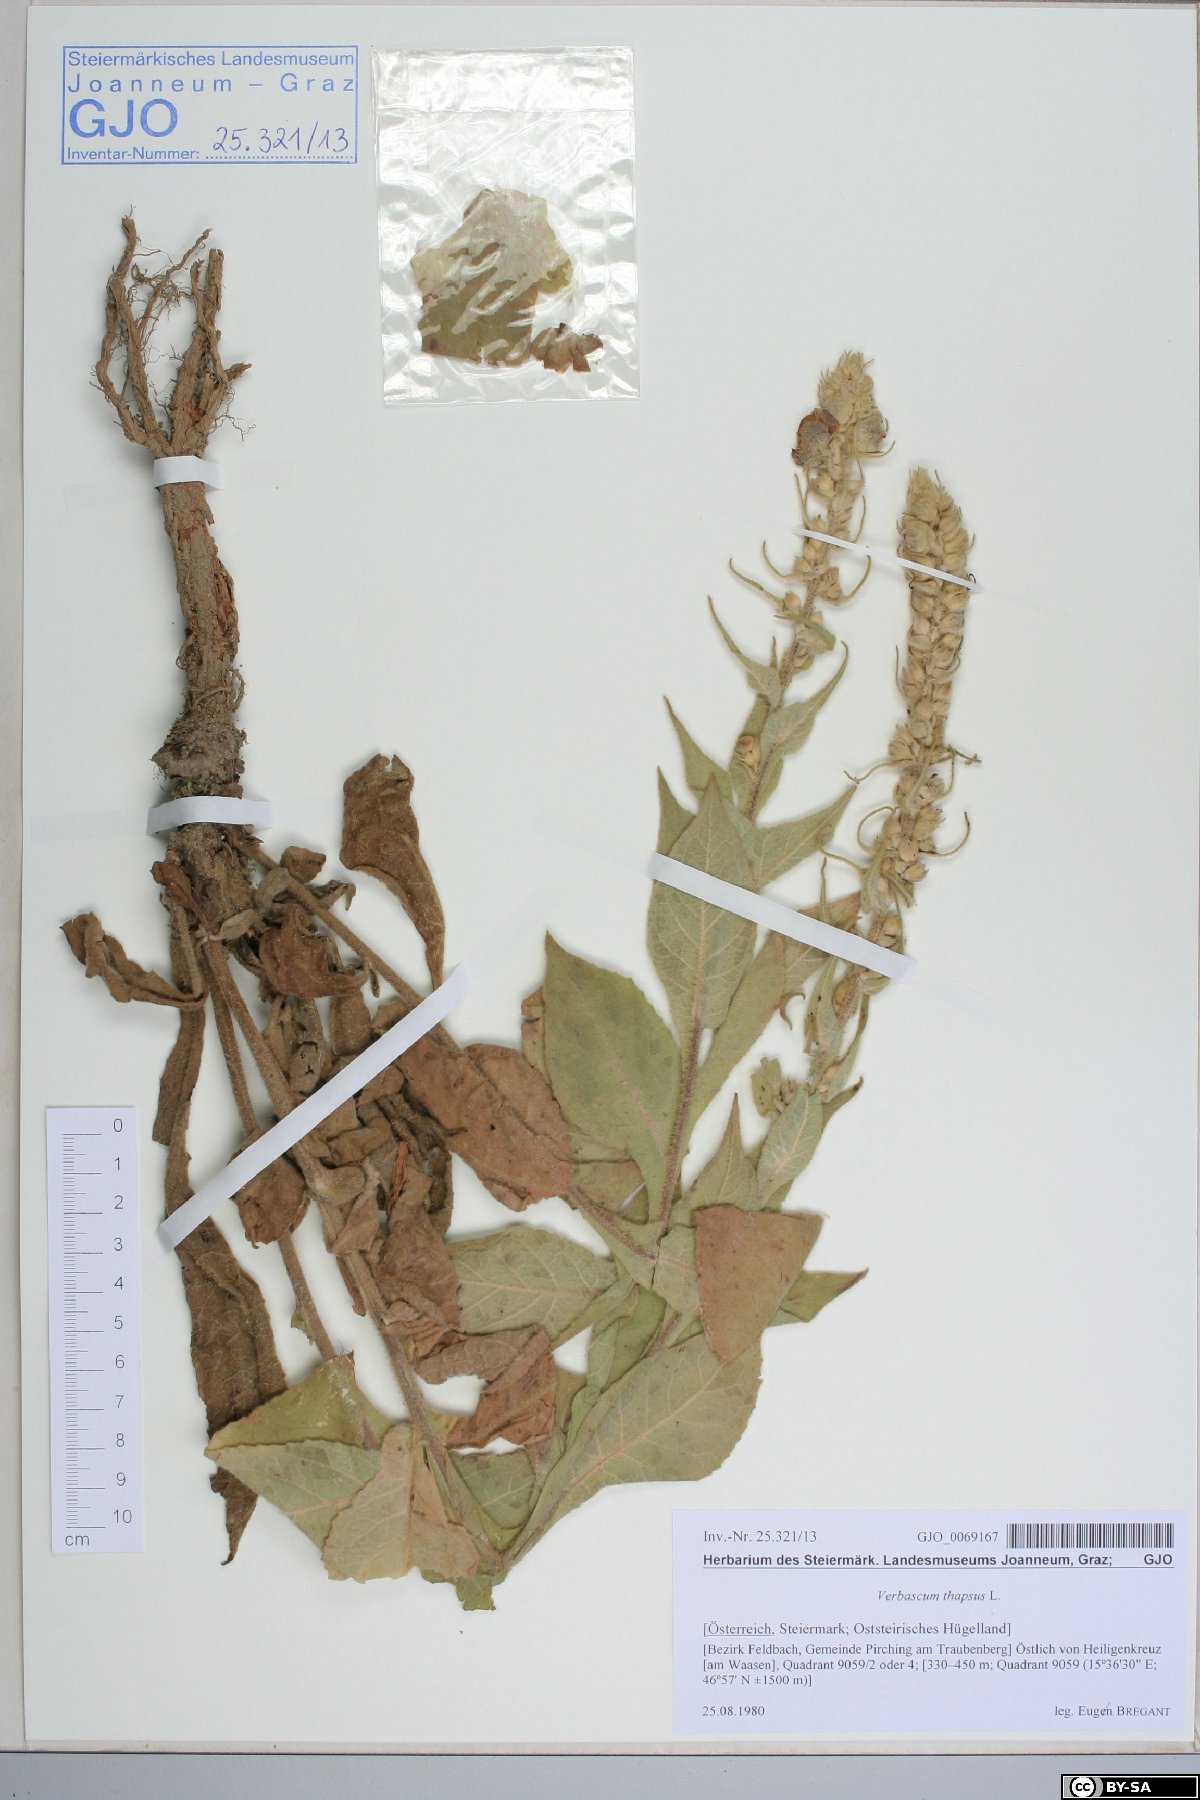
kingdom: Plantae
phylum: Tracheophyta
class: Magnoliopsida
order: Lamiales
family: Scrophulariaceae
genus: Verbascum
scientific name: Verbascum thapsus
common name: Common mullein
